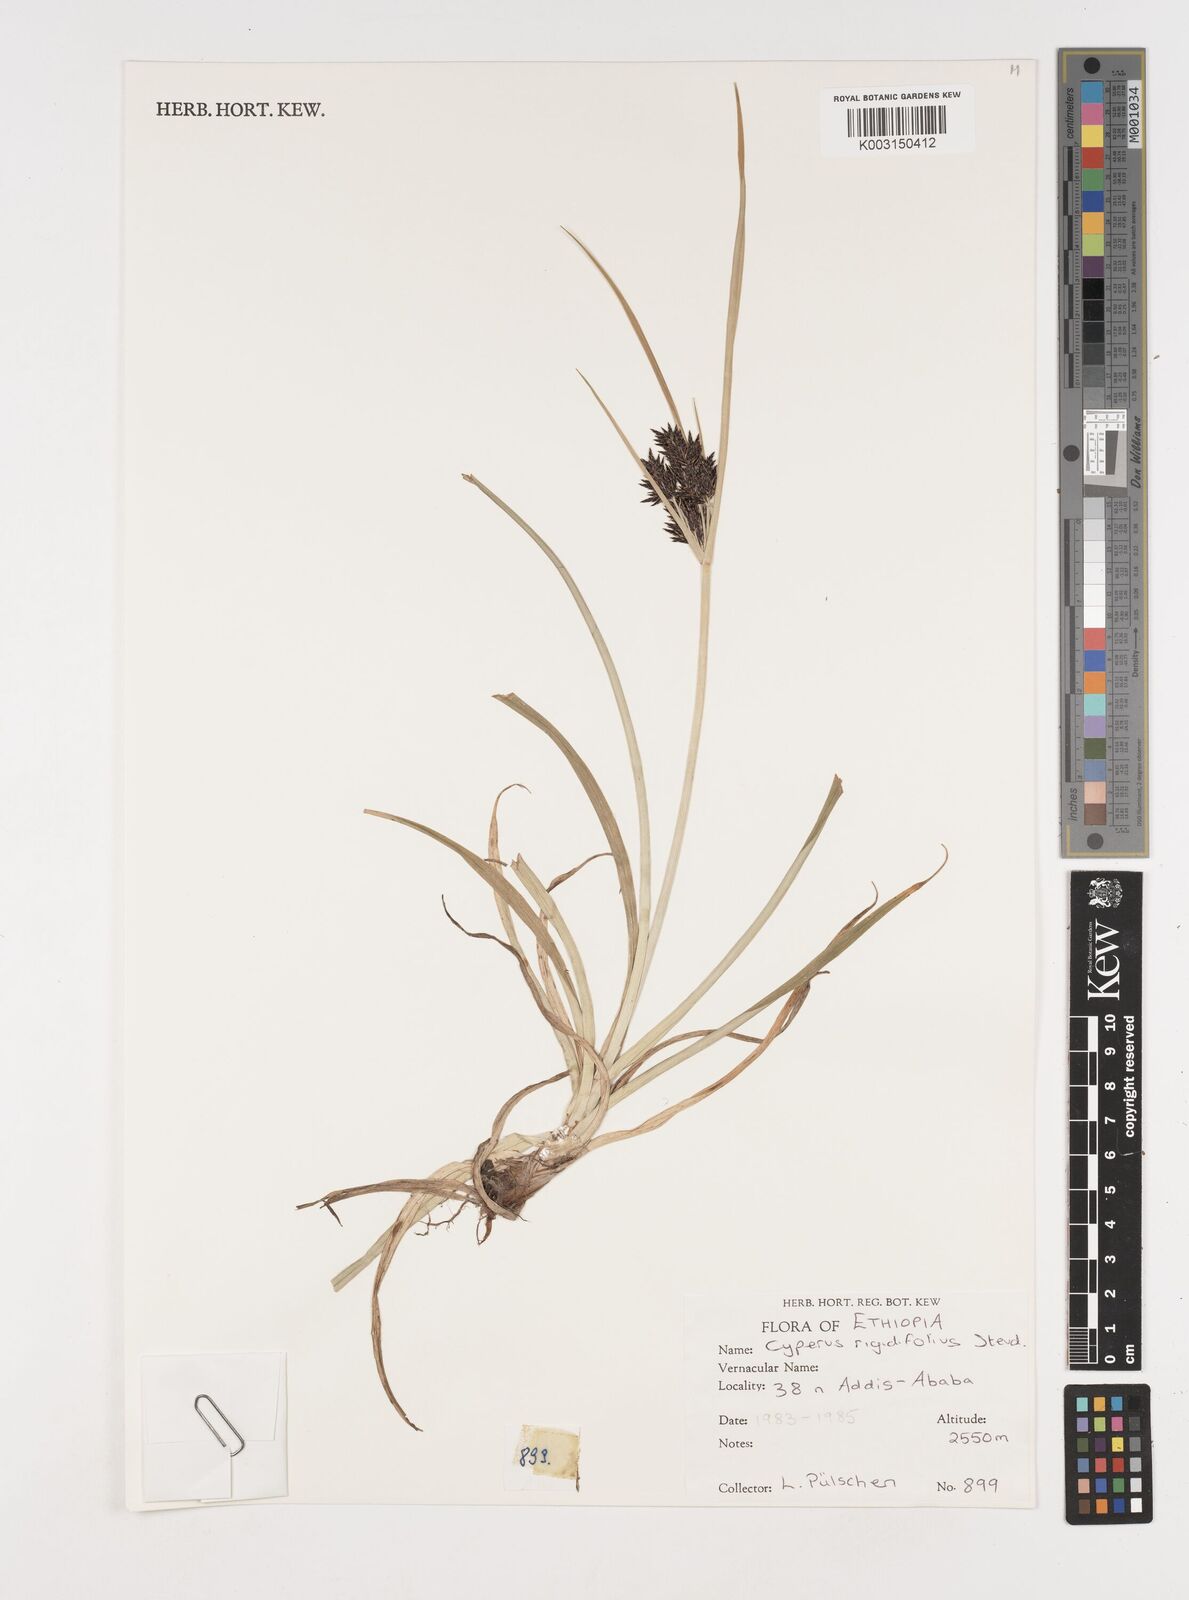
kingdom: Plantae
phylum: Tracheophyta
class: Liliopsida
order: Poales
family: Cyperaceae
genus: Cyperus
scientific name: Cyperus rigidifolius
